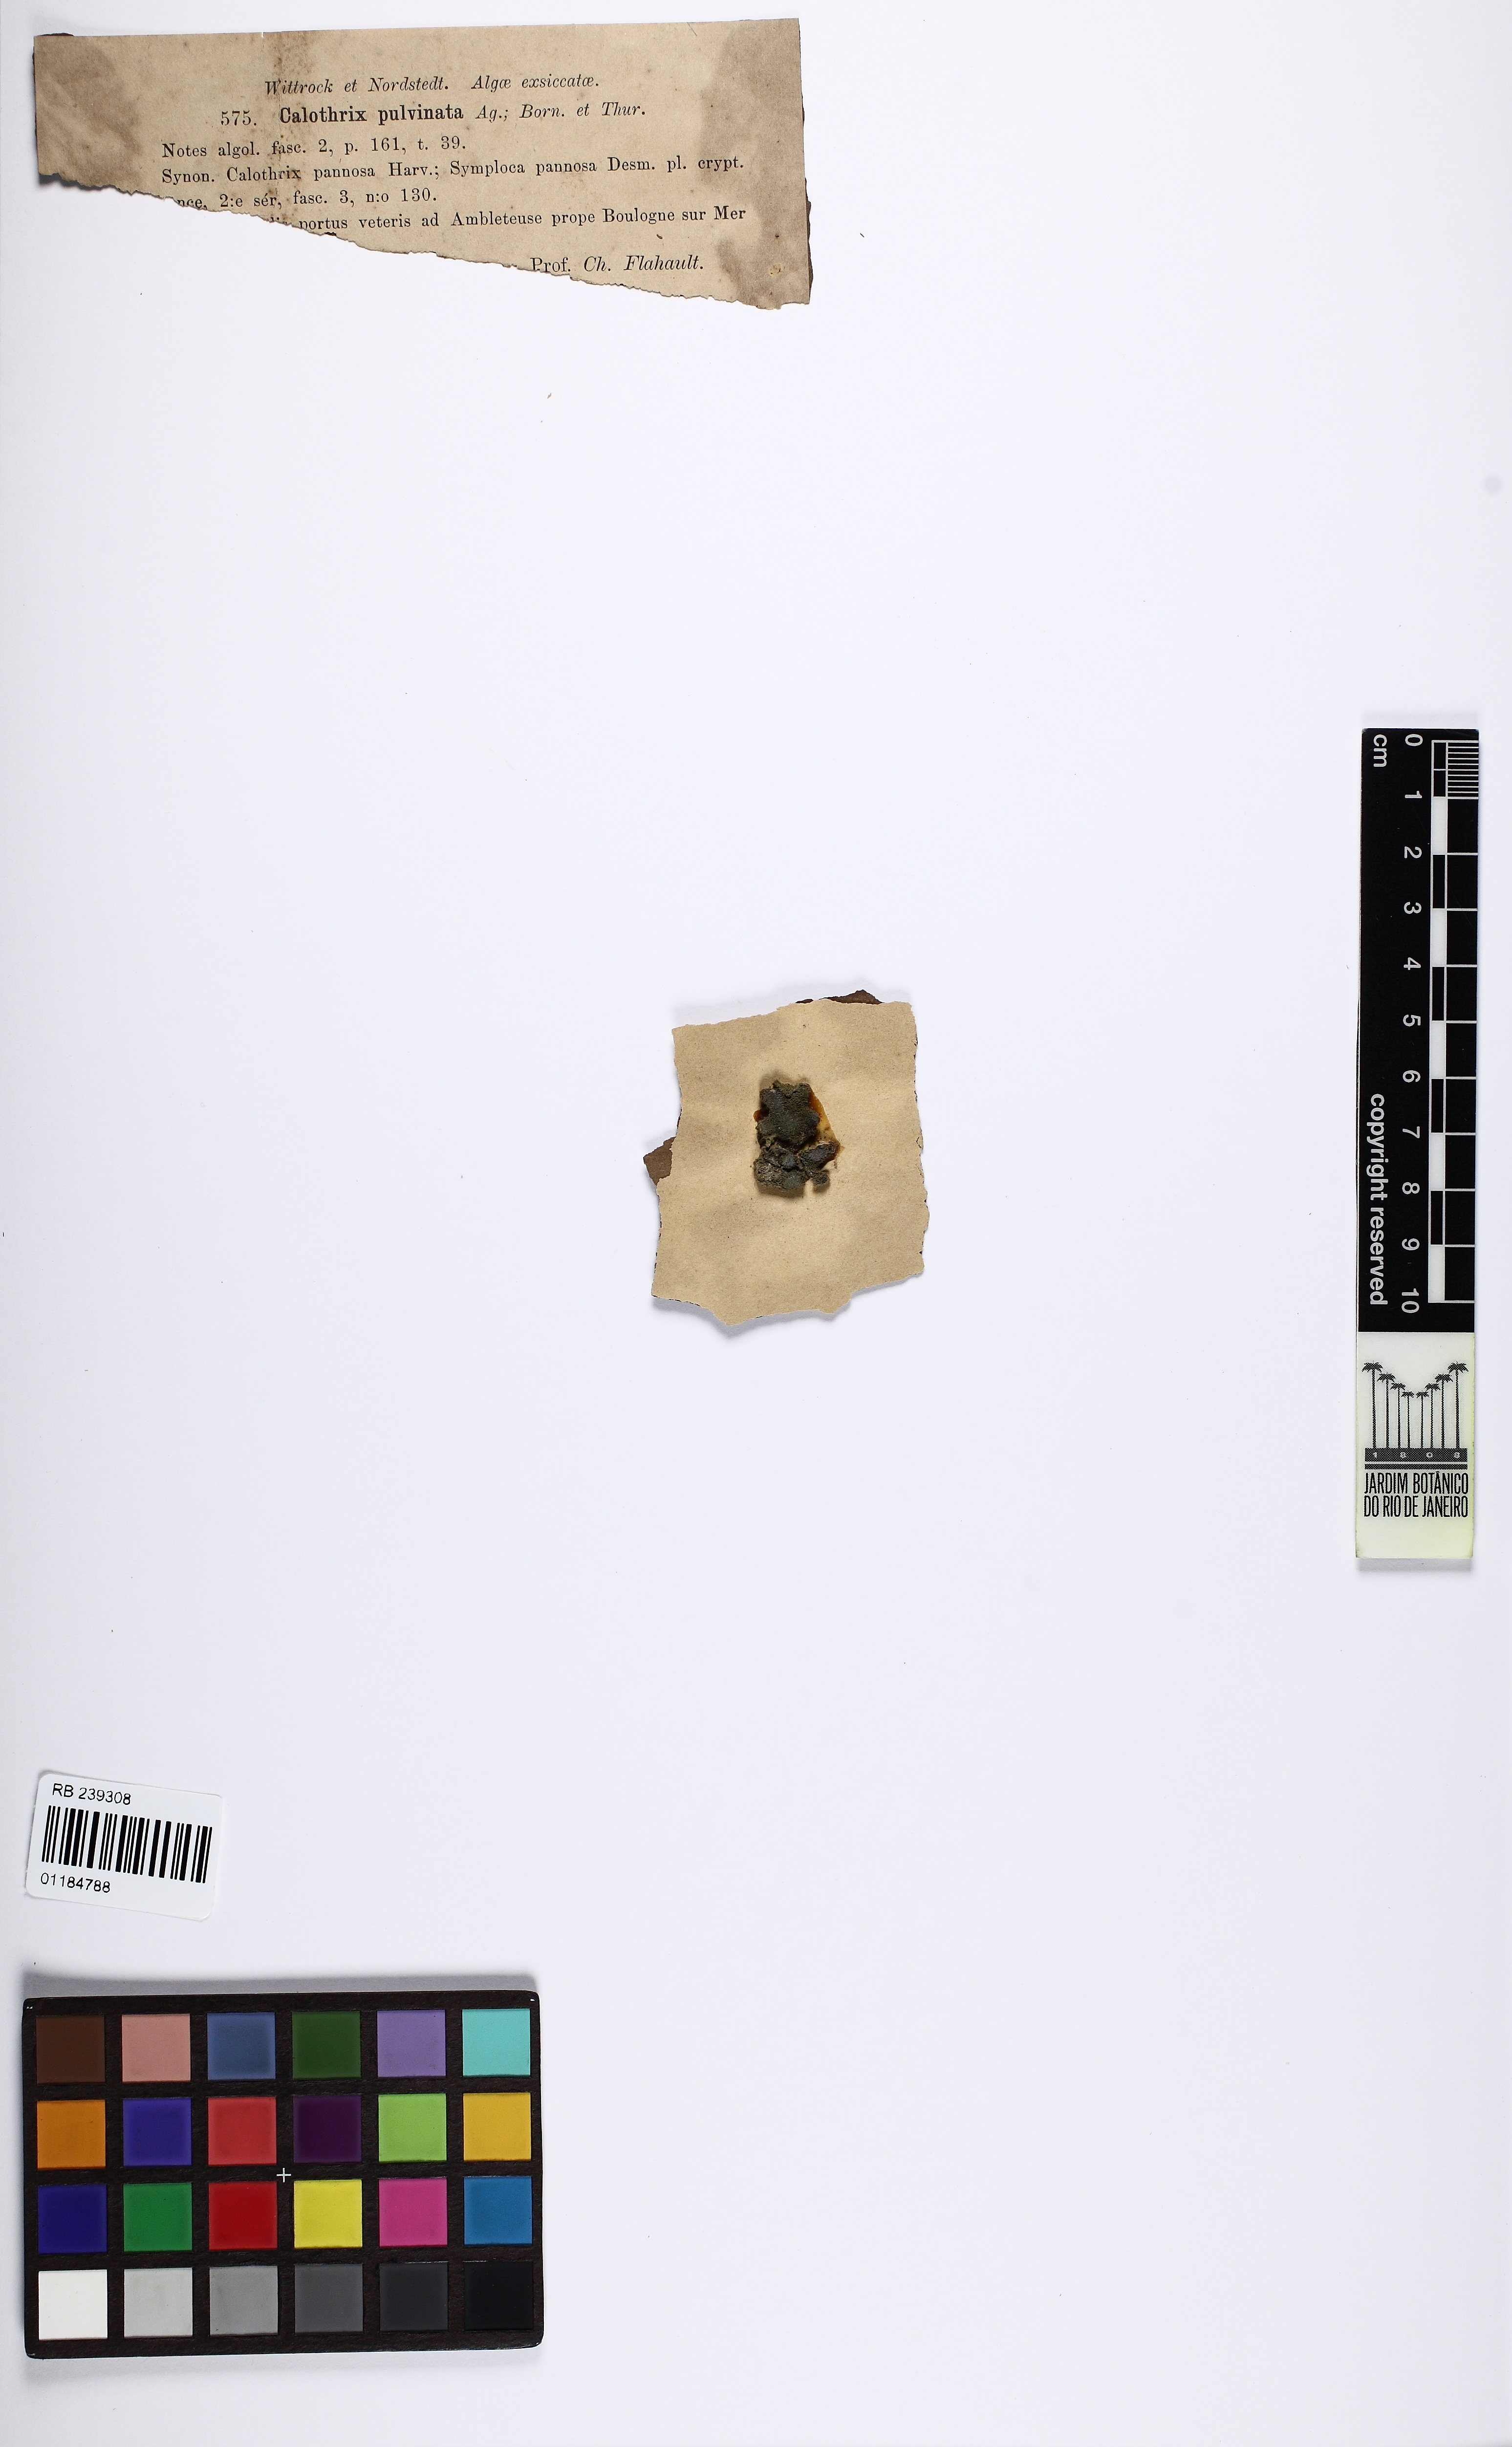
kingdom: Bacteria
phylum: Cyanobacteria
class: Cyanobacteriia
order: Cyanobacteriales
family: Nostocaceae
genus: Calothrix
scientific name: Calothrix pulvinata
